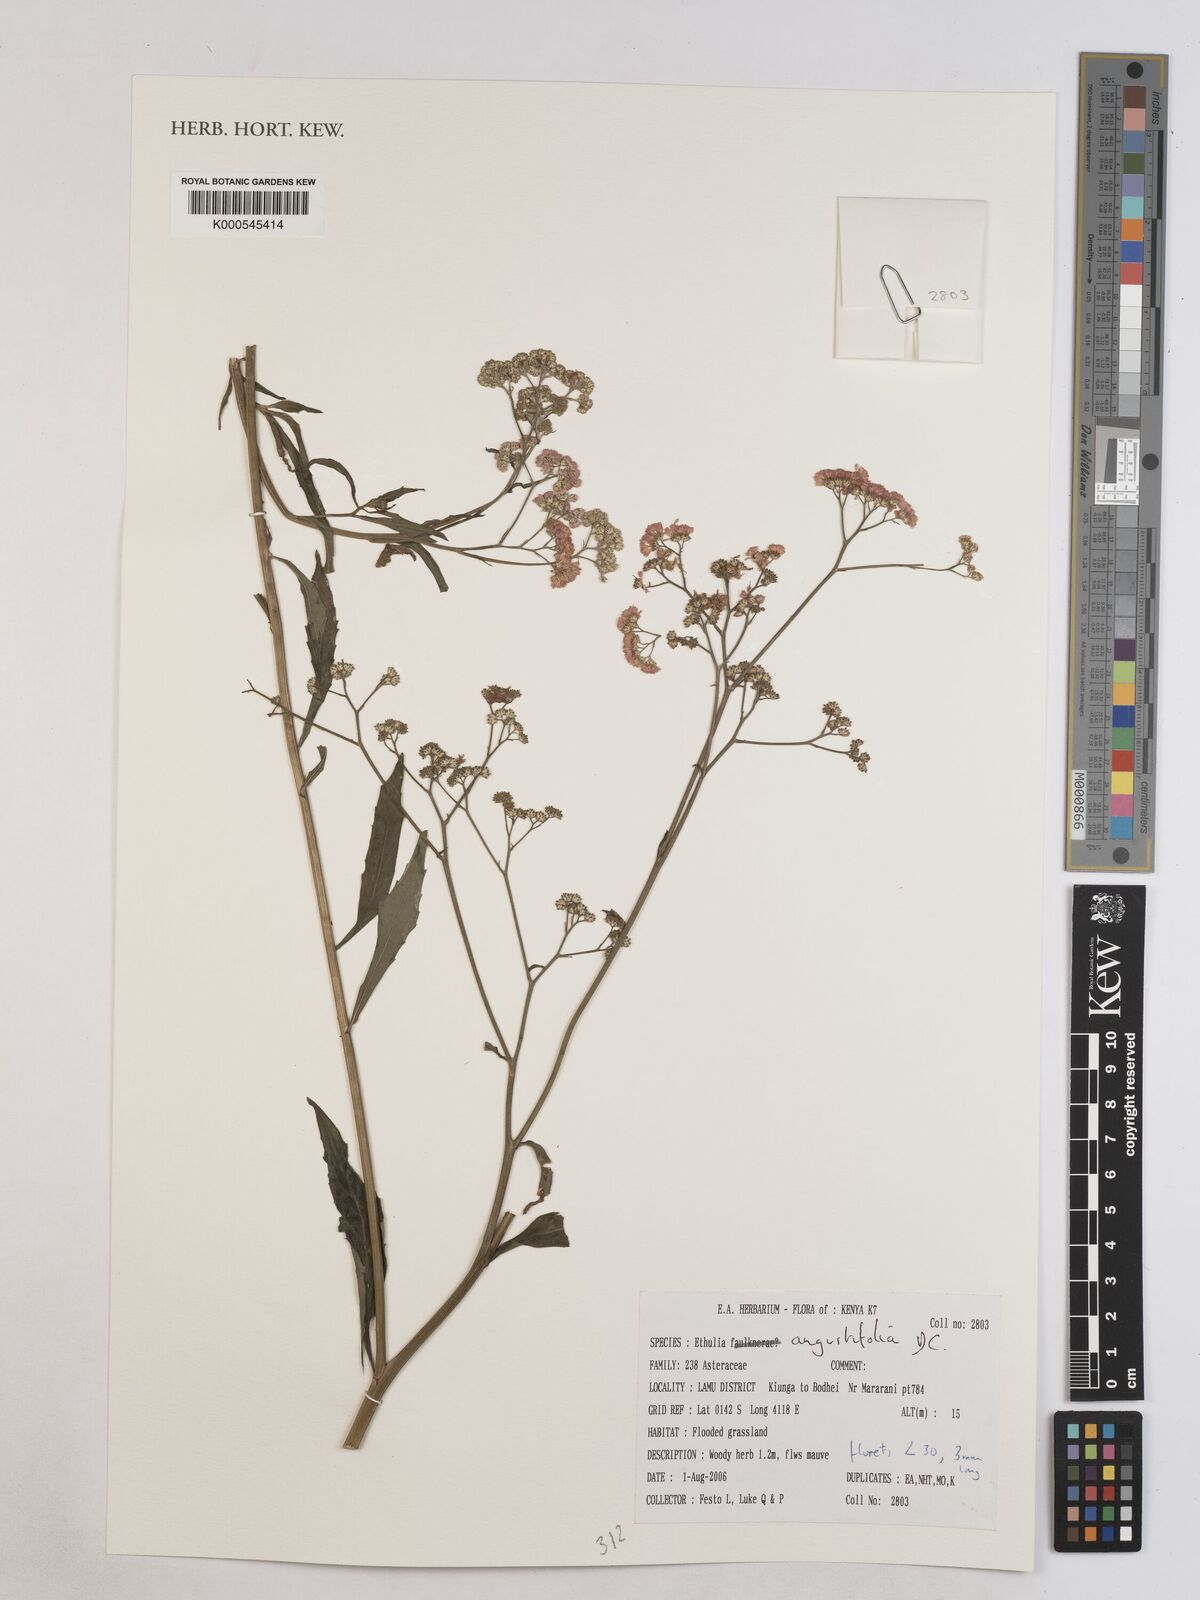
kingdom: Plantae
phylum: Tracheophyta
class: Magnoliopsida
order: Asterales
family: Asteraceae
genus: Ethulia
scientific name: Ethulia conyzoides
